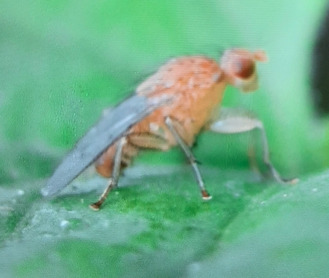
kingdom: Animalia
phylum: Arthropoda
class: Insecta
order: Diptera
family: Heleomyzidae
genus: Suillia
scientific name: Suillia
